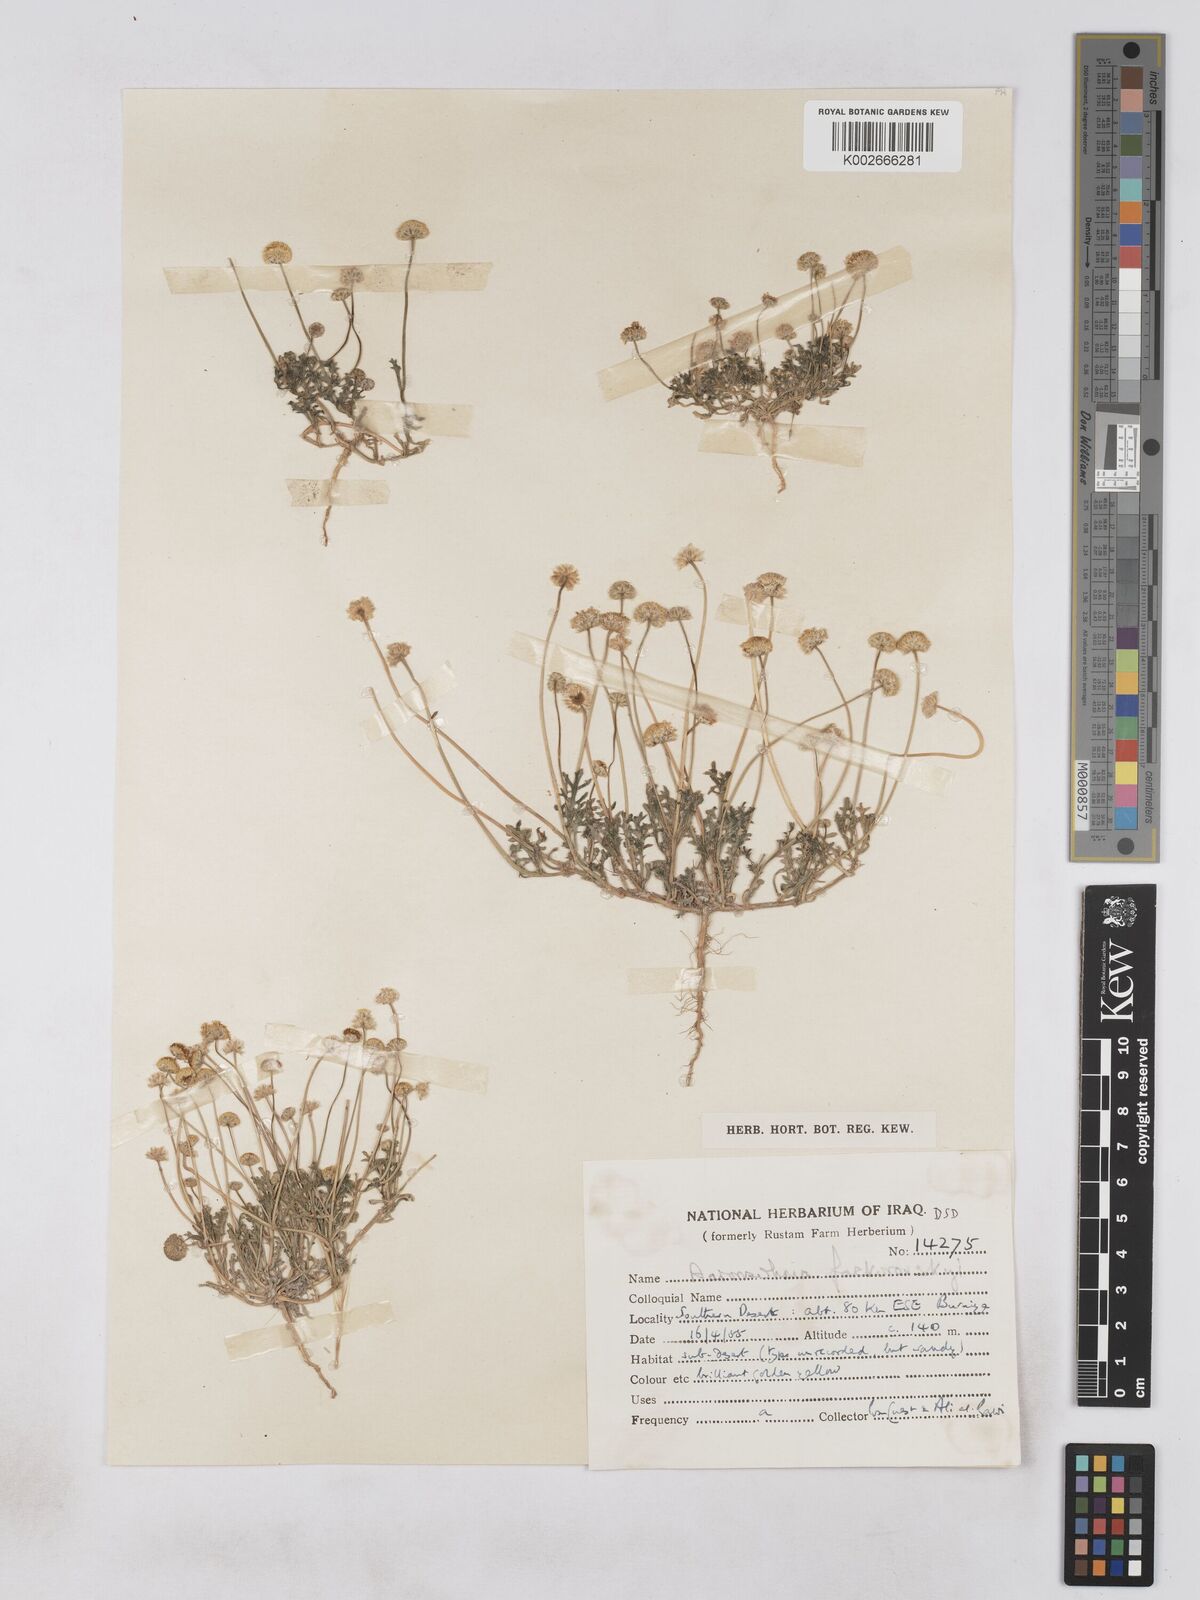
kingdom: Plantae
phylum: Tracheophyta
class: Magnoliopsida
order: Asterales
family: Asteraceae
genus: Otoglyphis
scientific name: Otoglyphis factorovskyi
